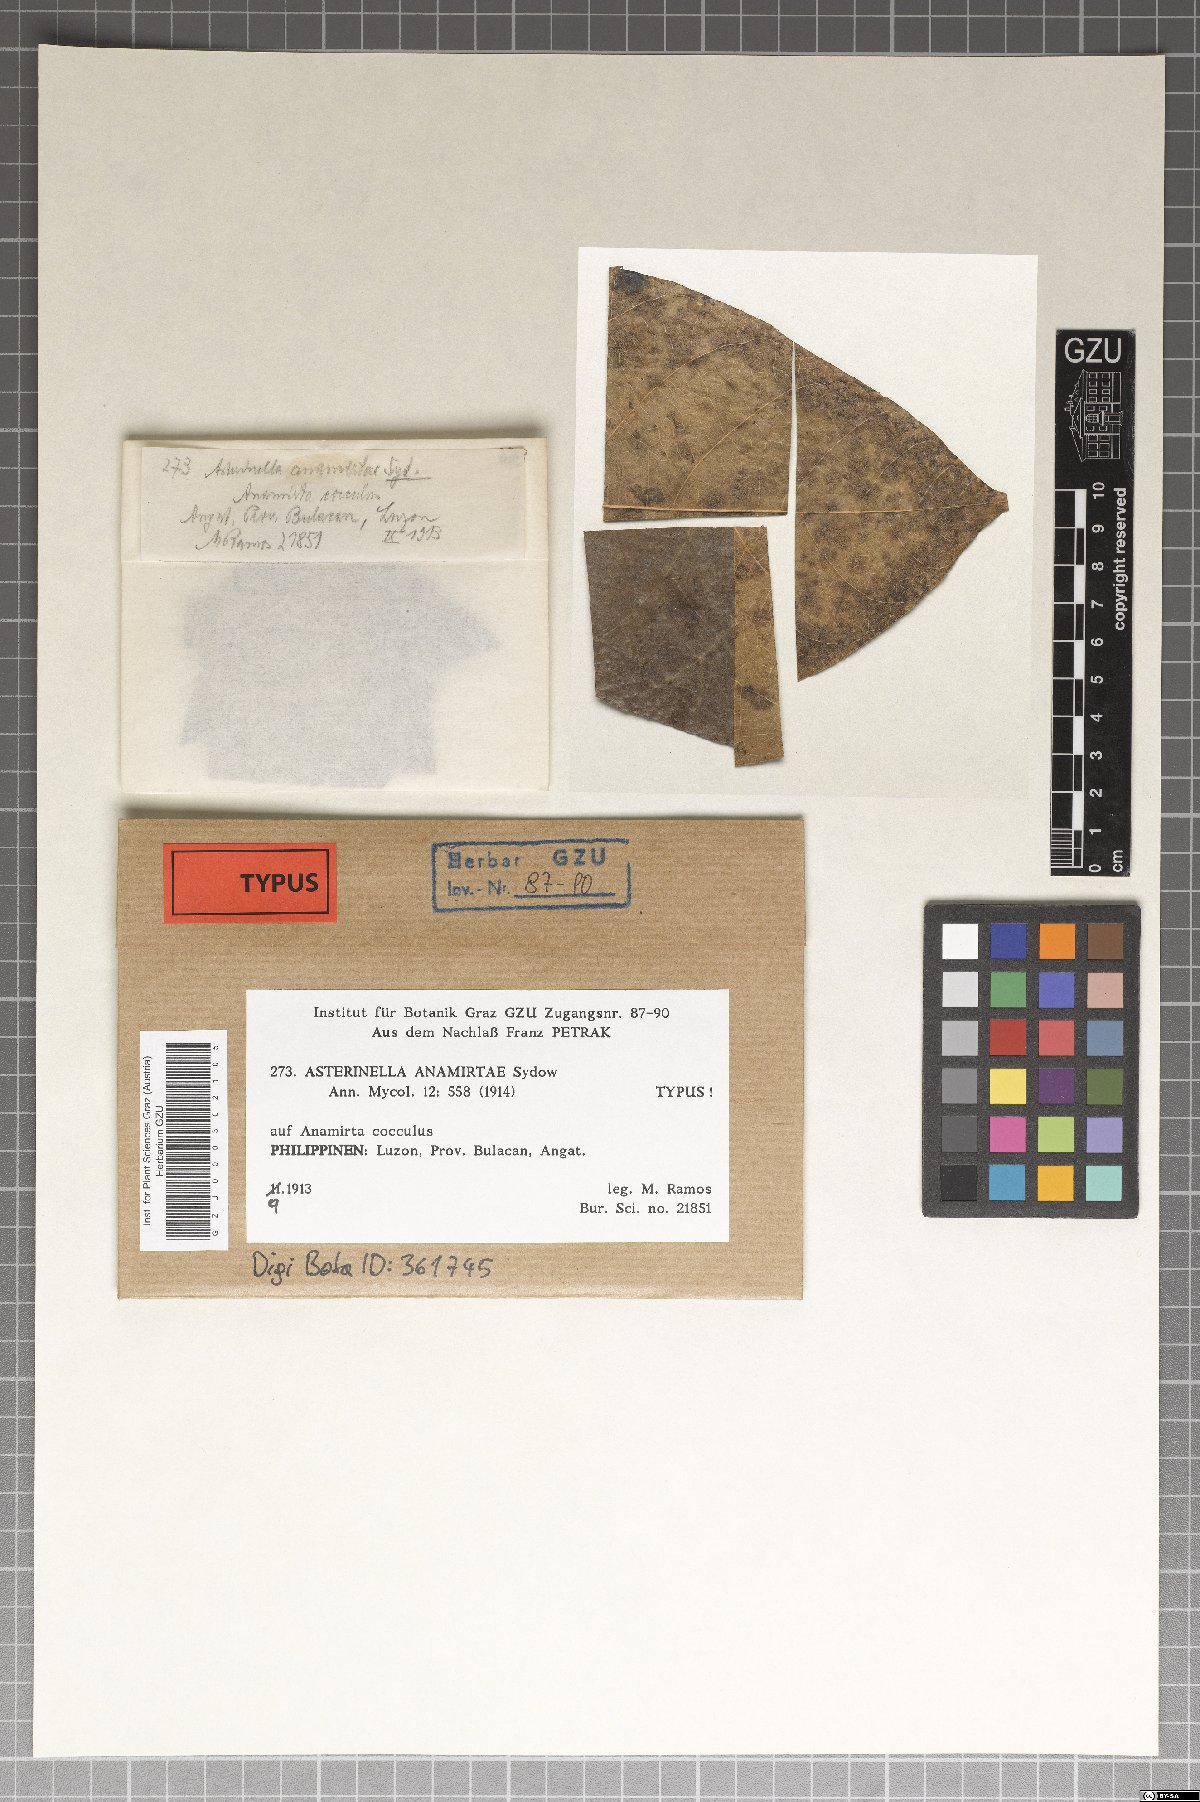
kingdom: Fungi
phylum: Ascomycota
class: Dothideomycetes
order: Asterinales
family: Asterinaceae
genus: Prillieuxina
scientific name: Prillieuxina anamirtae
